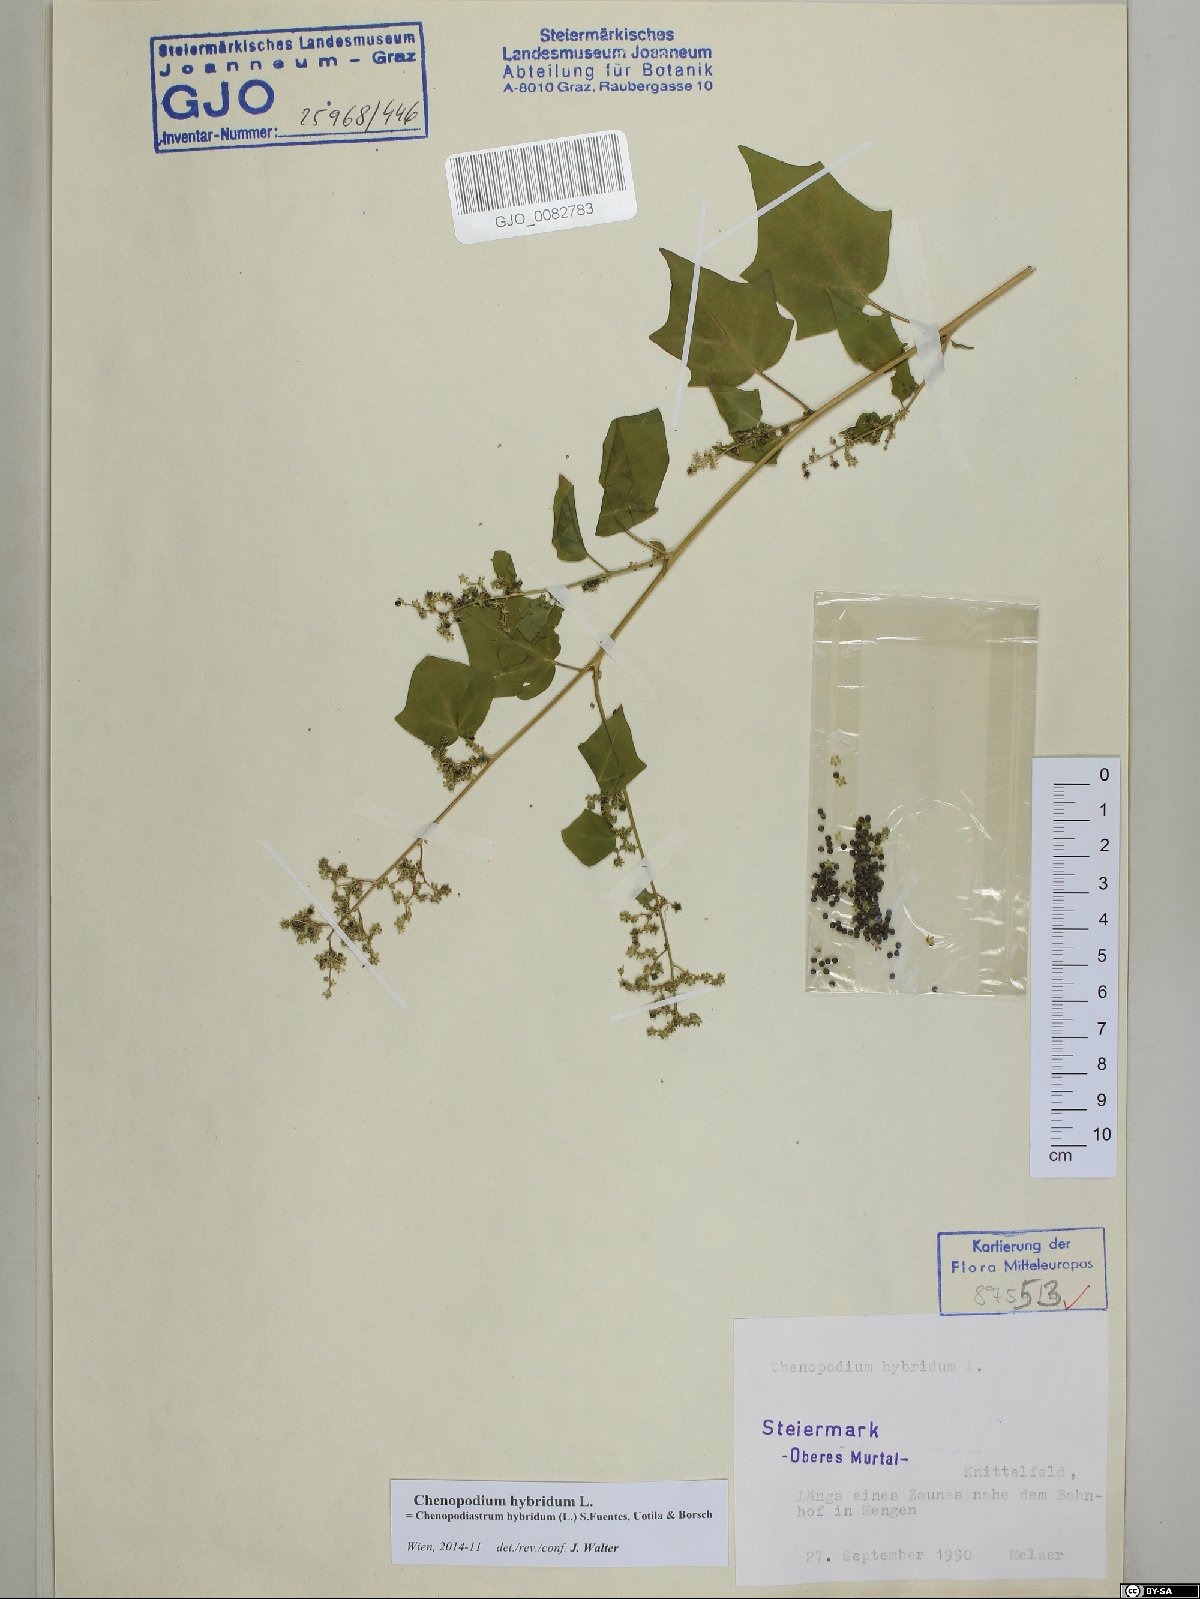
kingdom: Plantae
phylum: Tracheophyta
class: Magnoliopsida
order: Caryophyllales
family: Amaranthaceae
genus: Chenopodiastrum
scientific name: Chenopodiastrum hybridum
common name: Mapleleaf goosefoot
